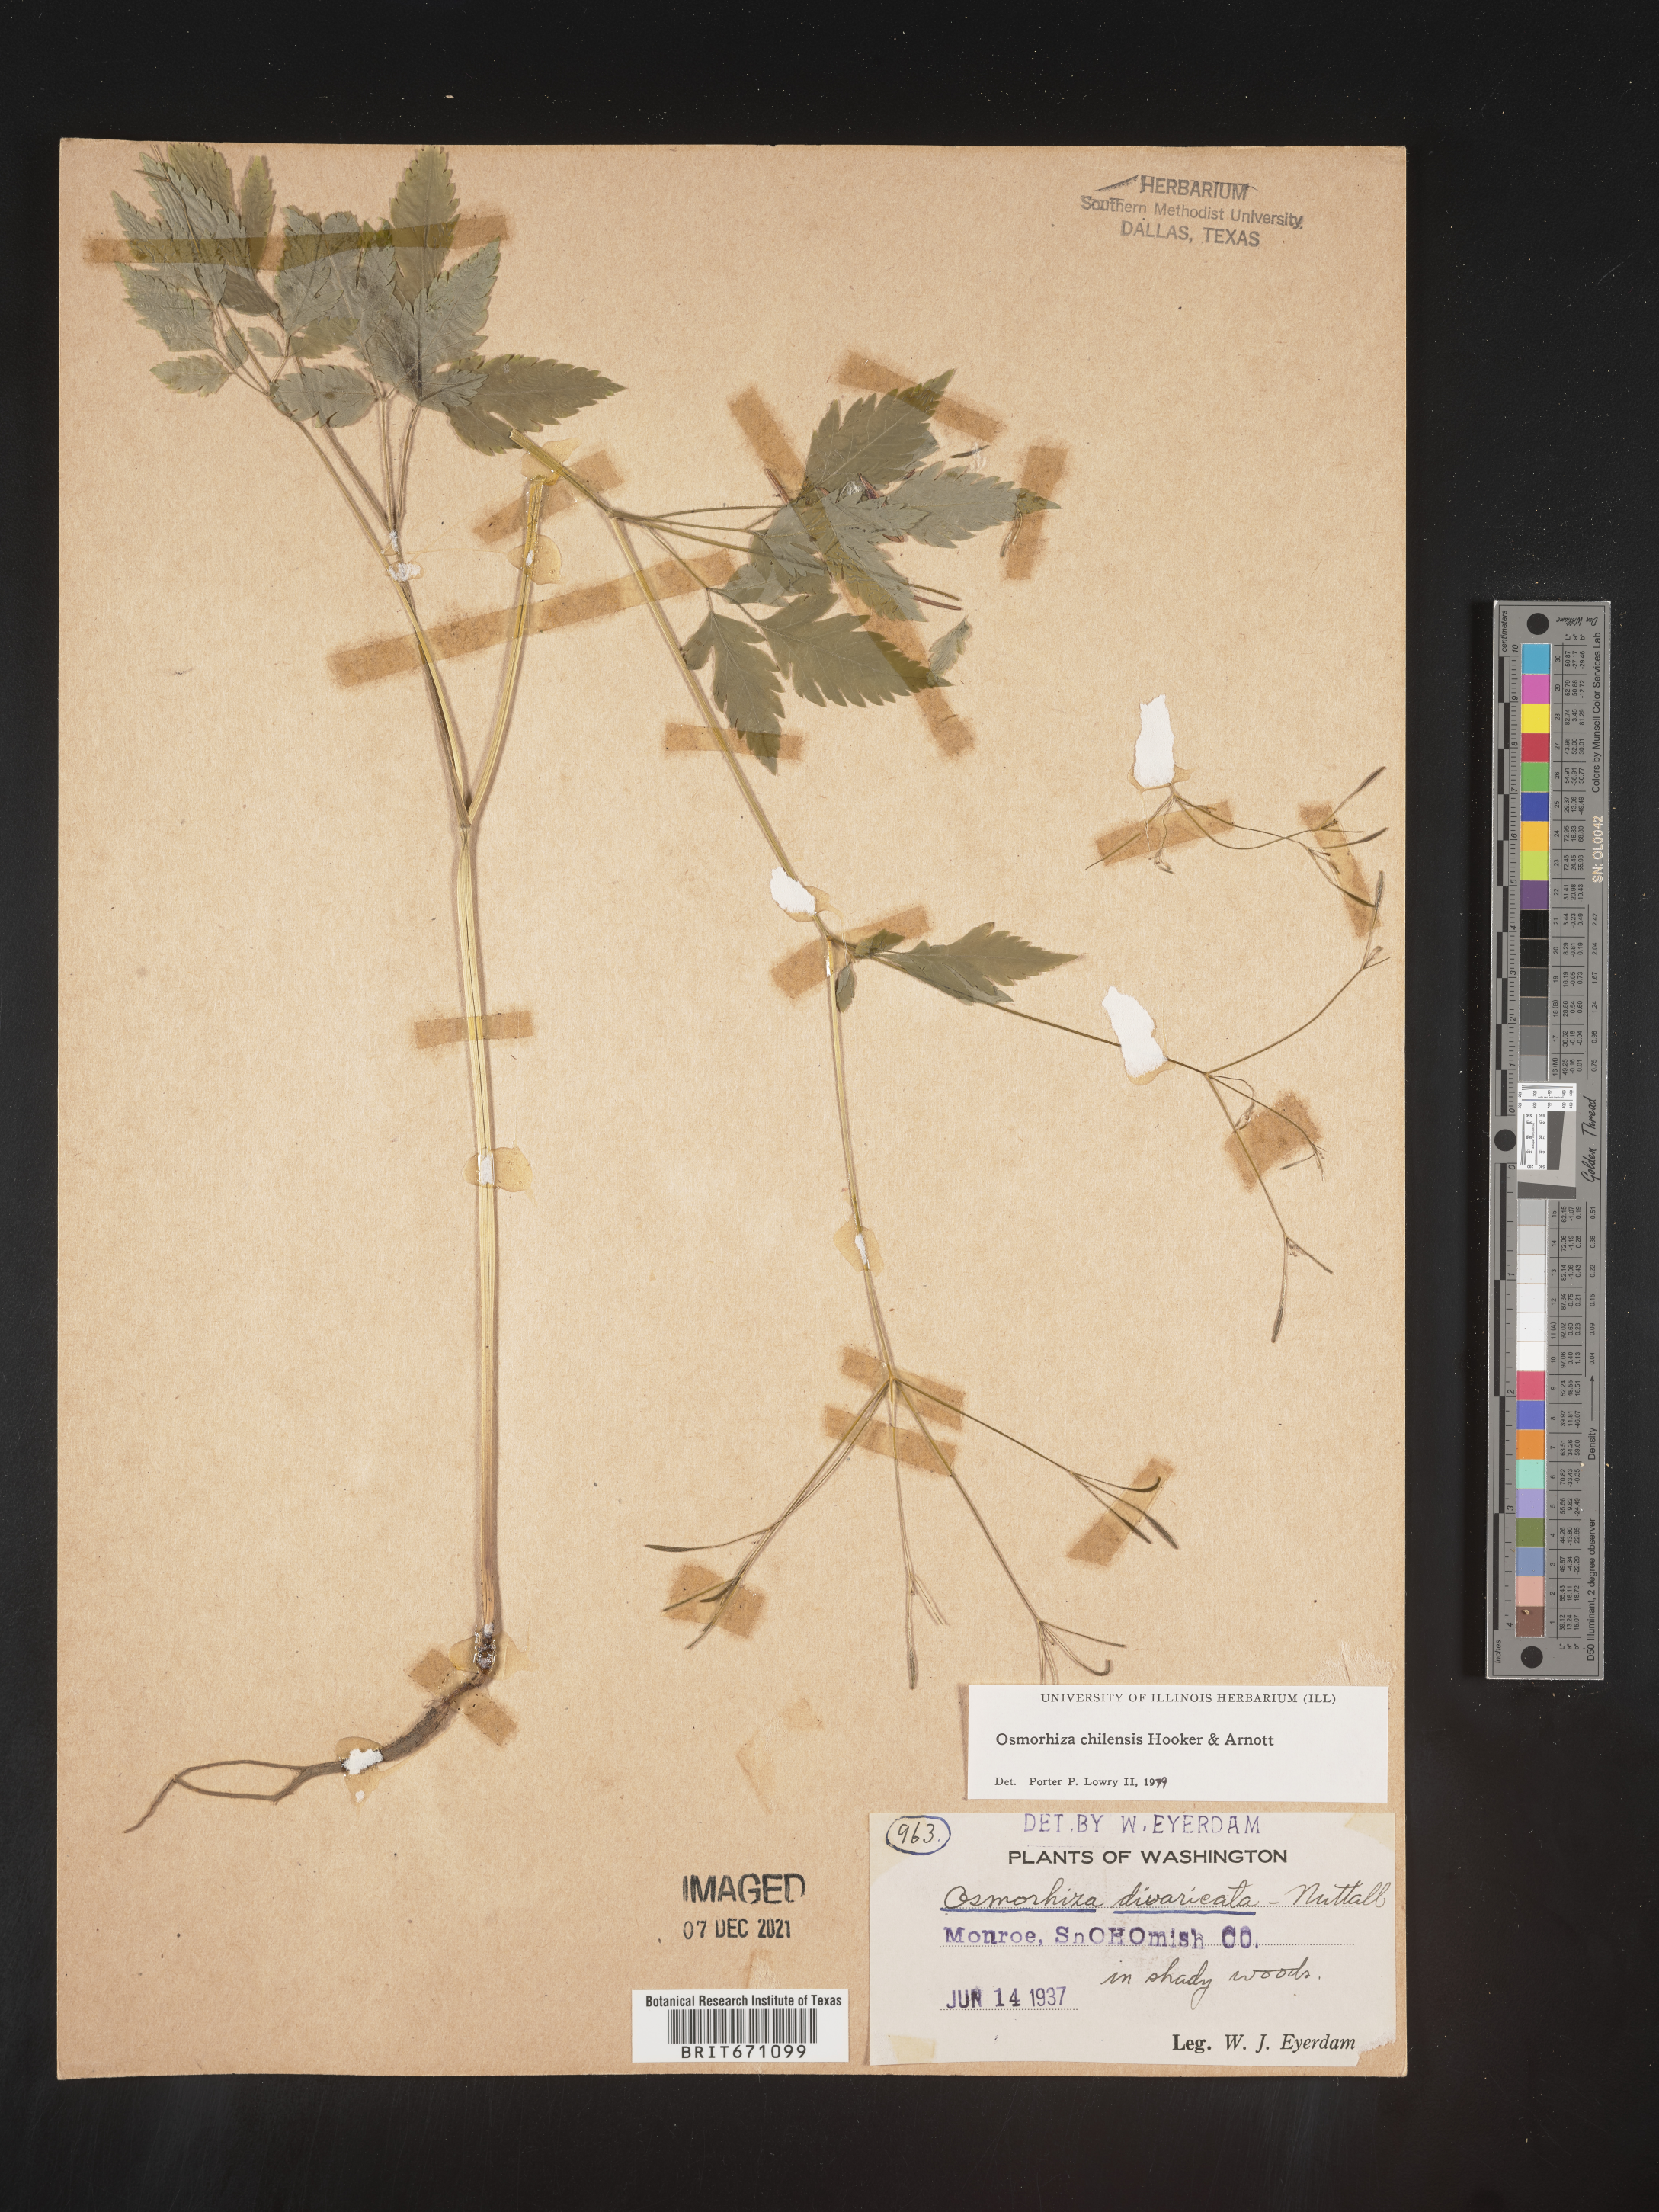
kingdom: Plantae
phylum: Tracheophyta
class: Magnoliopsida
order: Apiales
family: Apiaceae
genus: Osmorhiza
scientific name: Osmorhiza berteroi
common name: Mountain sweet cicely
